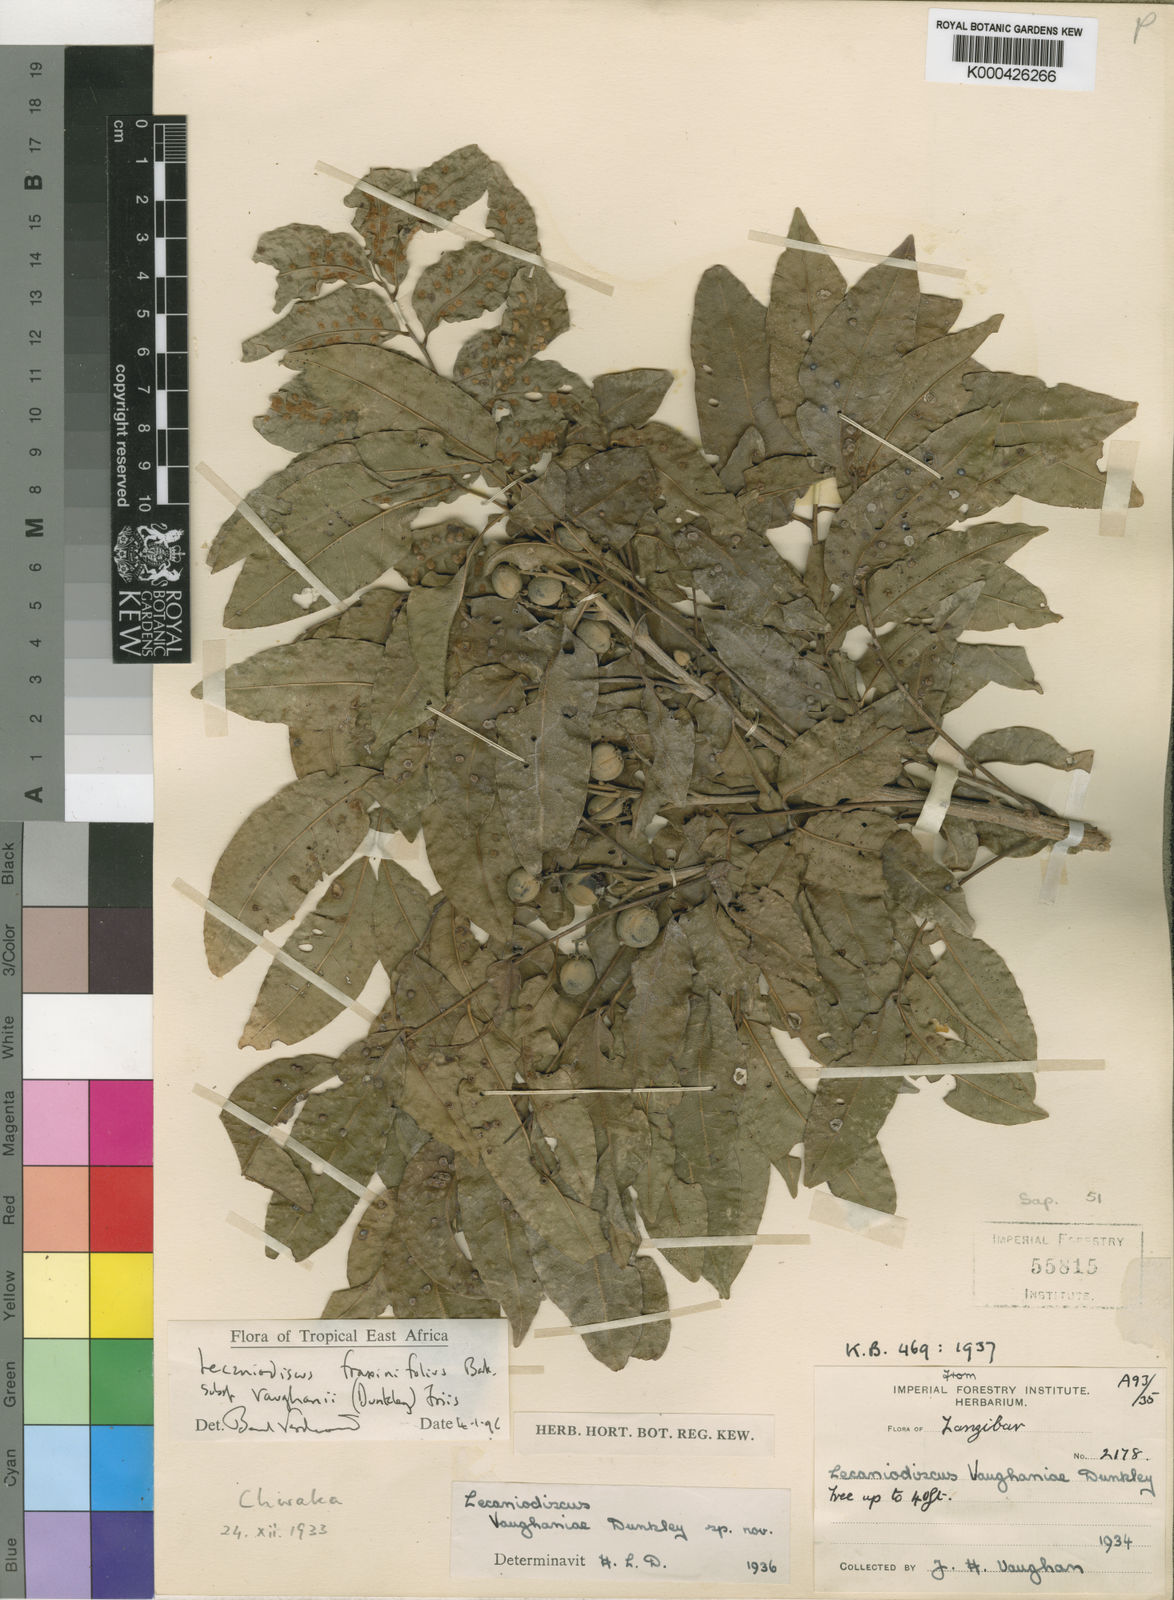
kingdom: Plantae
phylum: Tracheophyta
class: Magnoliopsida
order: Sapindales
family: Sapindaceae
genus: Lecaniodiscus
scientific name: Lecaniodiscus fraxinifolius
